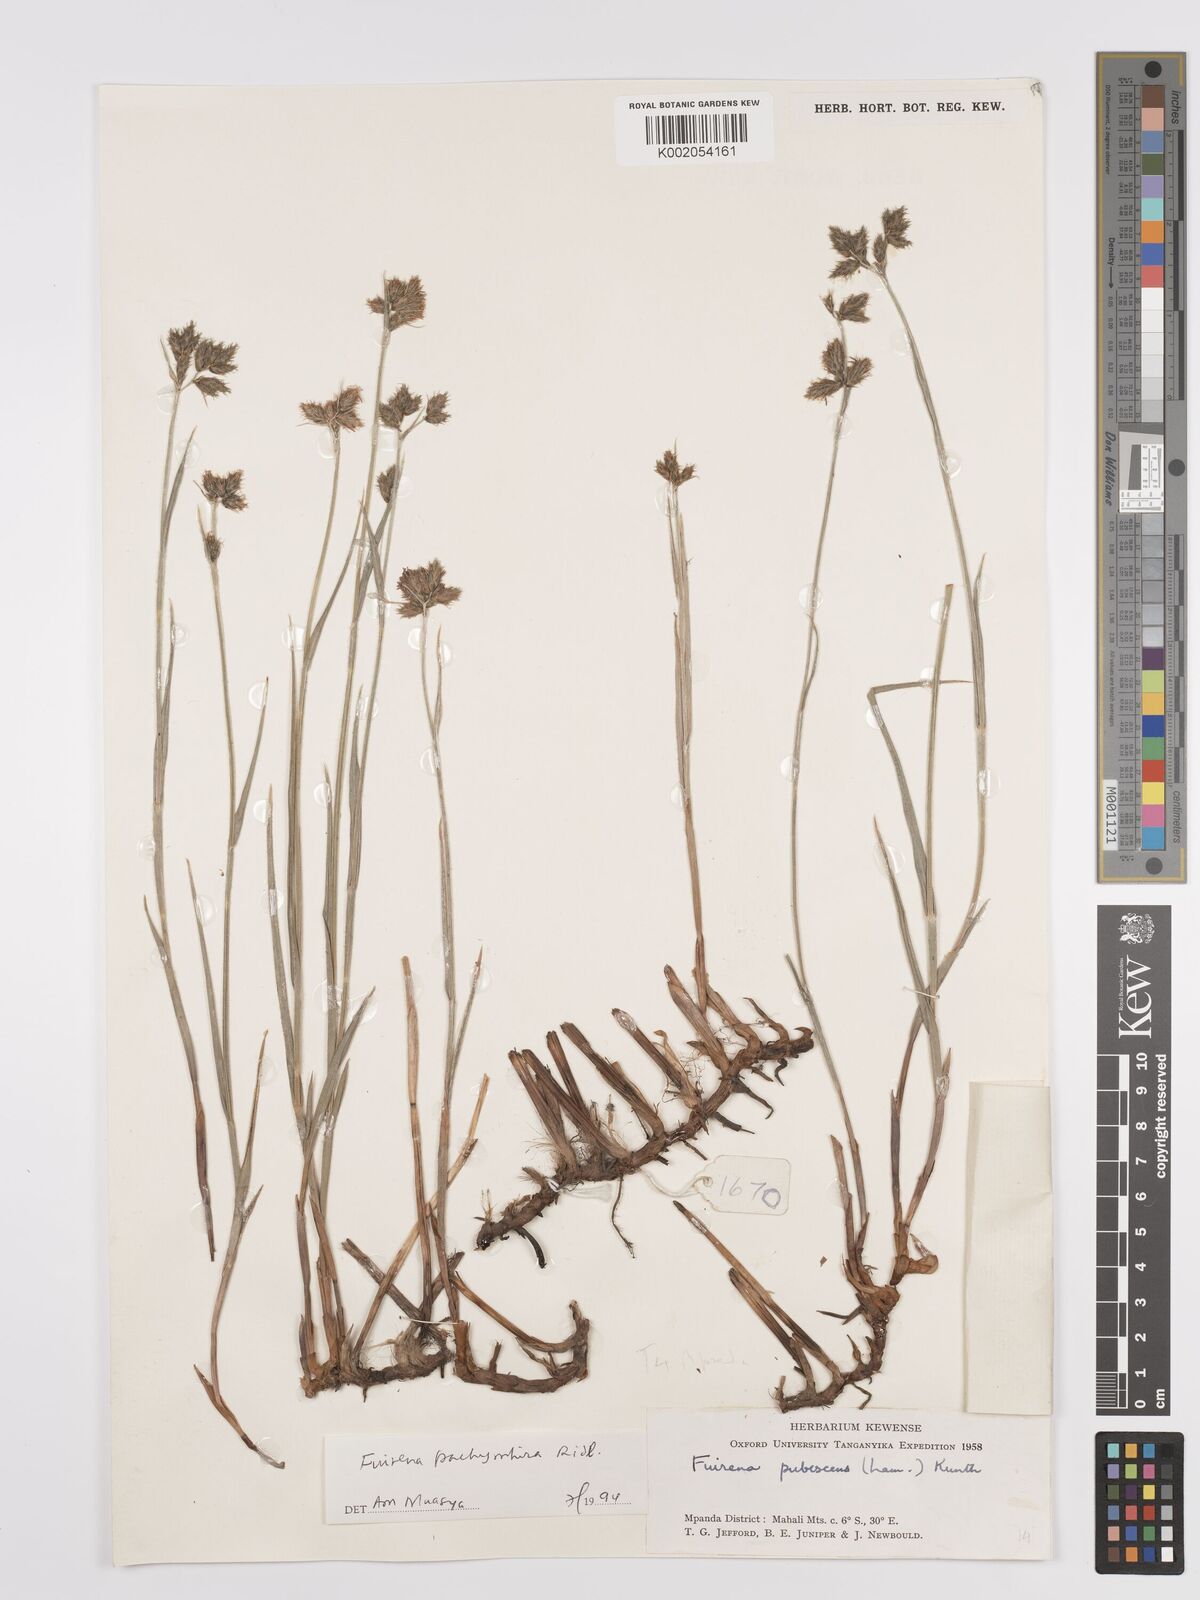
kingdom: Plantae
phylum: Tracheophyta
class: Liliopsida
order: Poales
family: Cyperaceae
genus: Fuirena
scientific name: Fuirena pachyrrhiza
